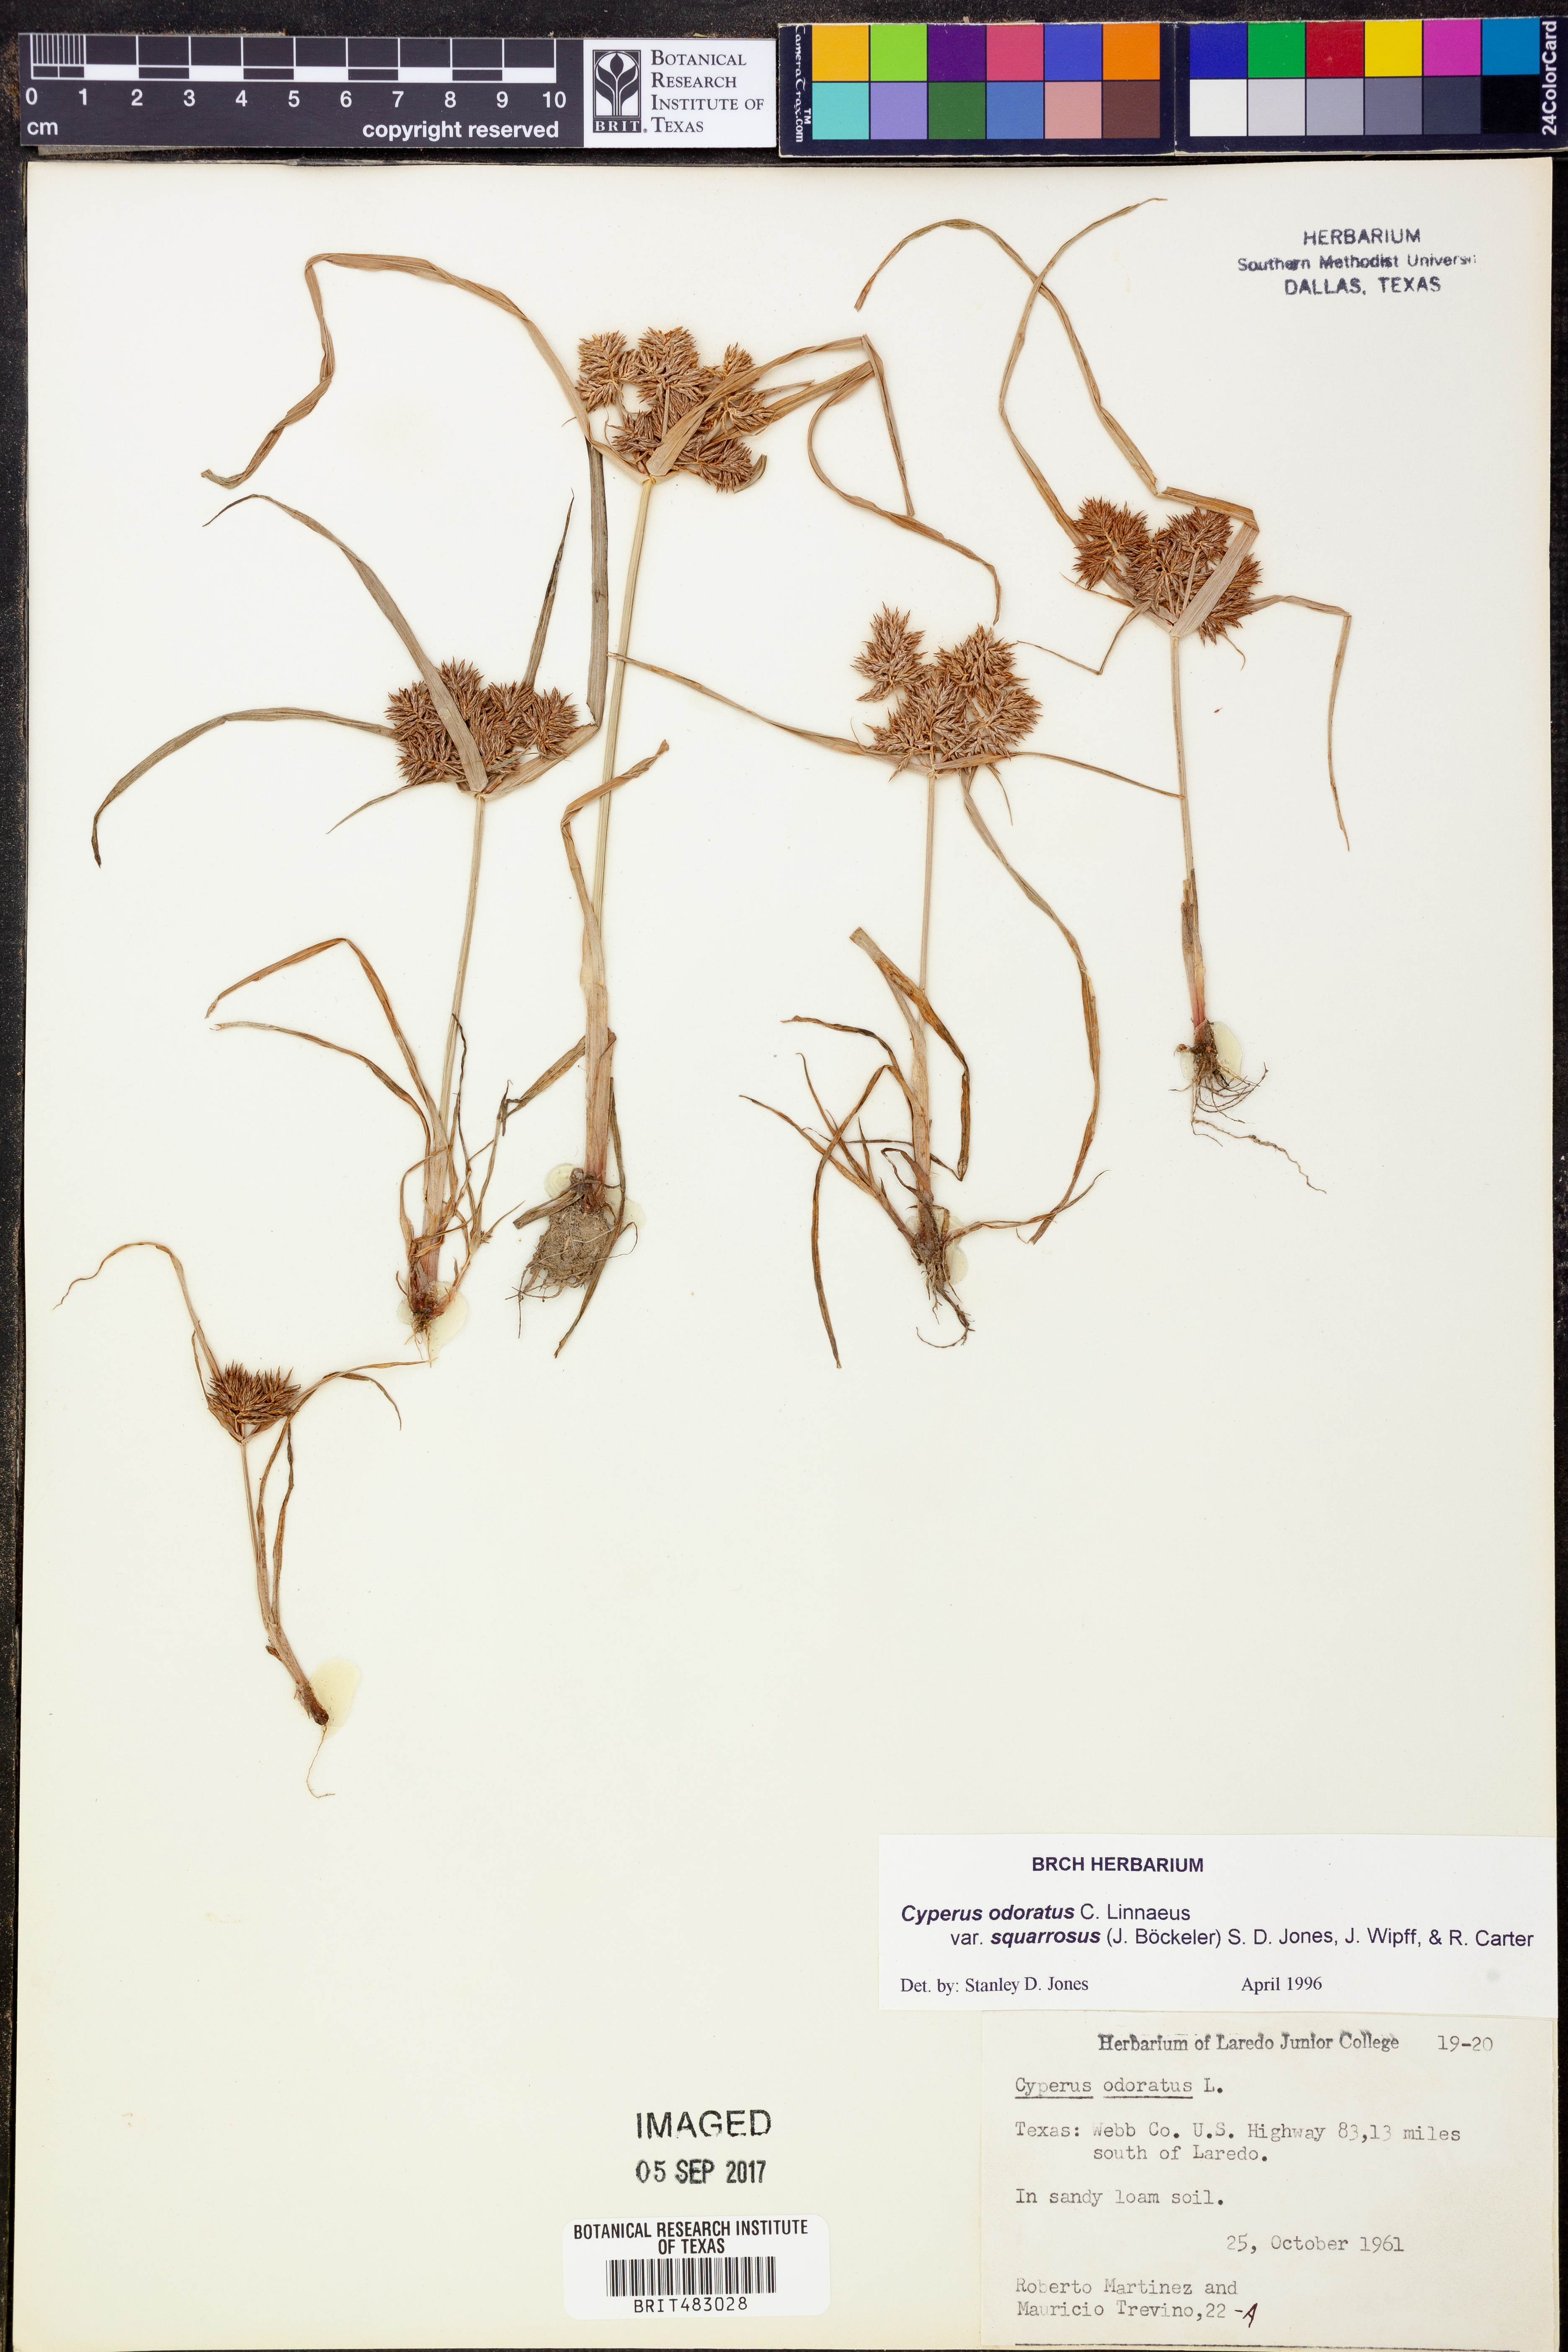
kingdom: Plantae
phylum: Tracheophyta
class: Liliopsida
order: Poales
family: Cyperaceae
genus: Cyperus
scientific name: Cyperus odoratus
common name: Fragrant flatsedge
